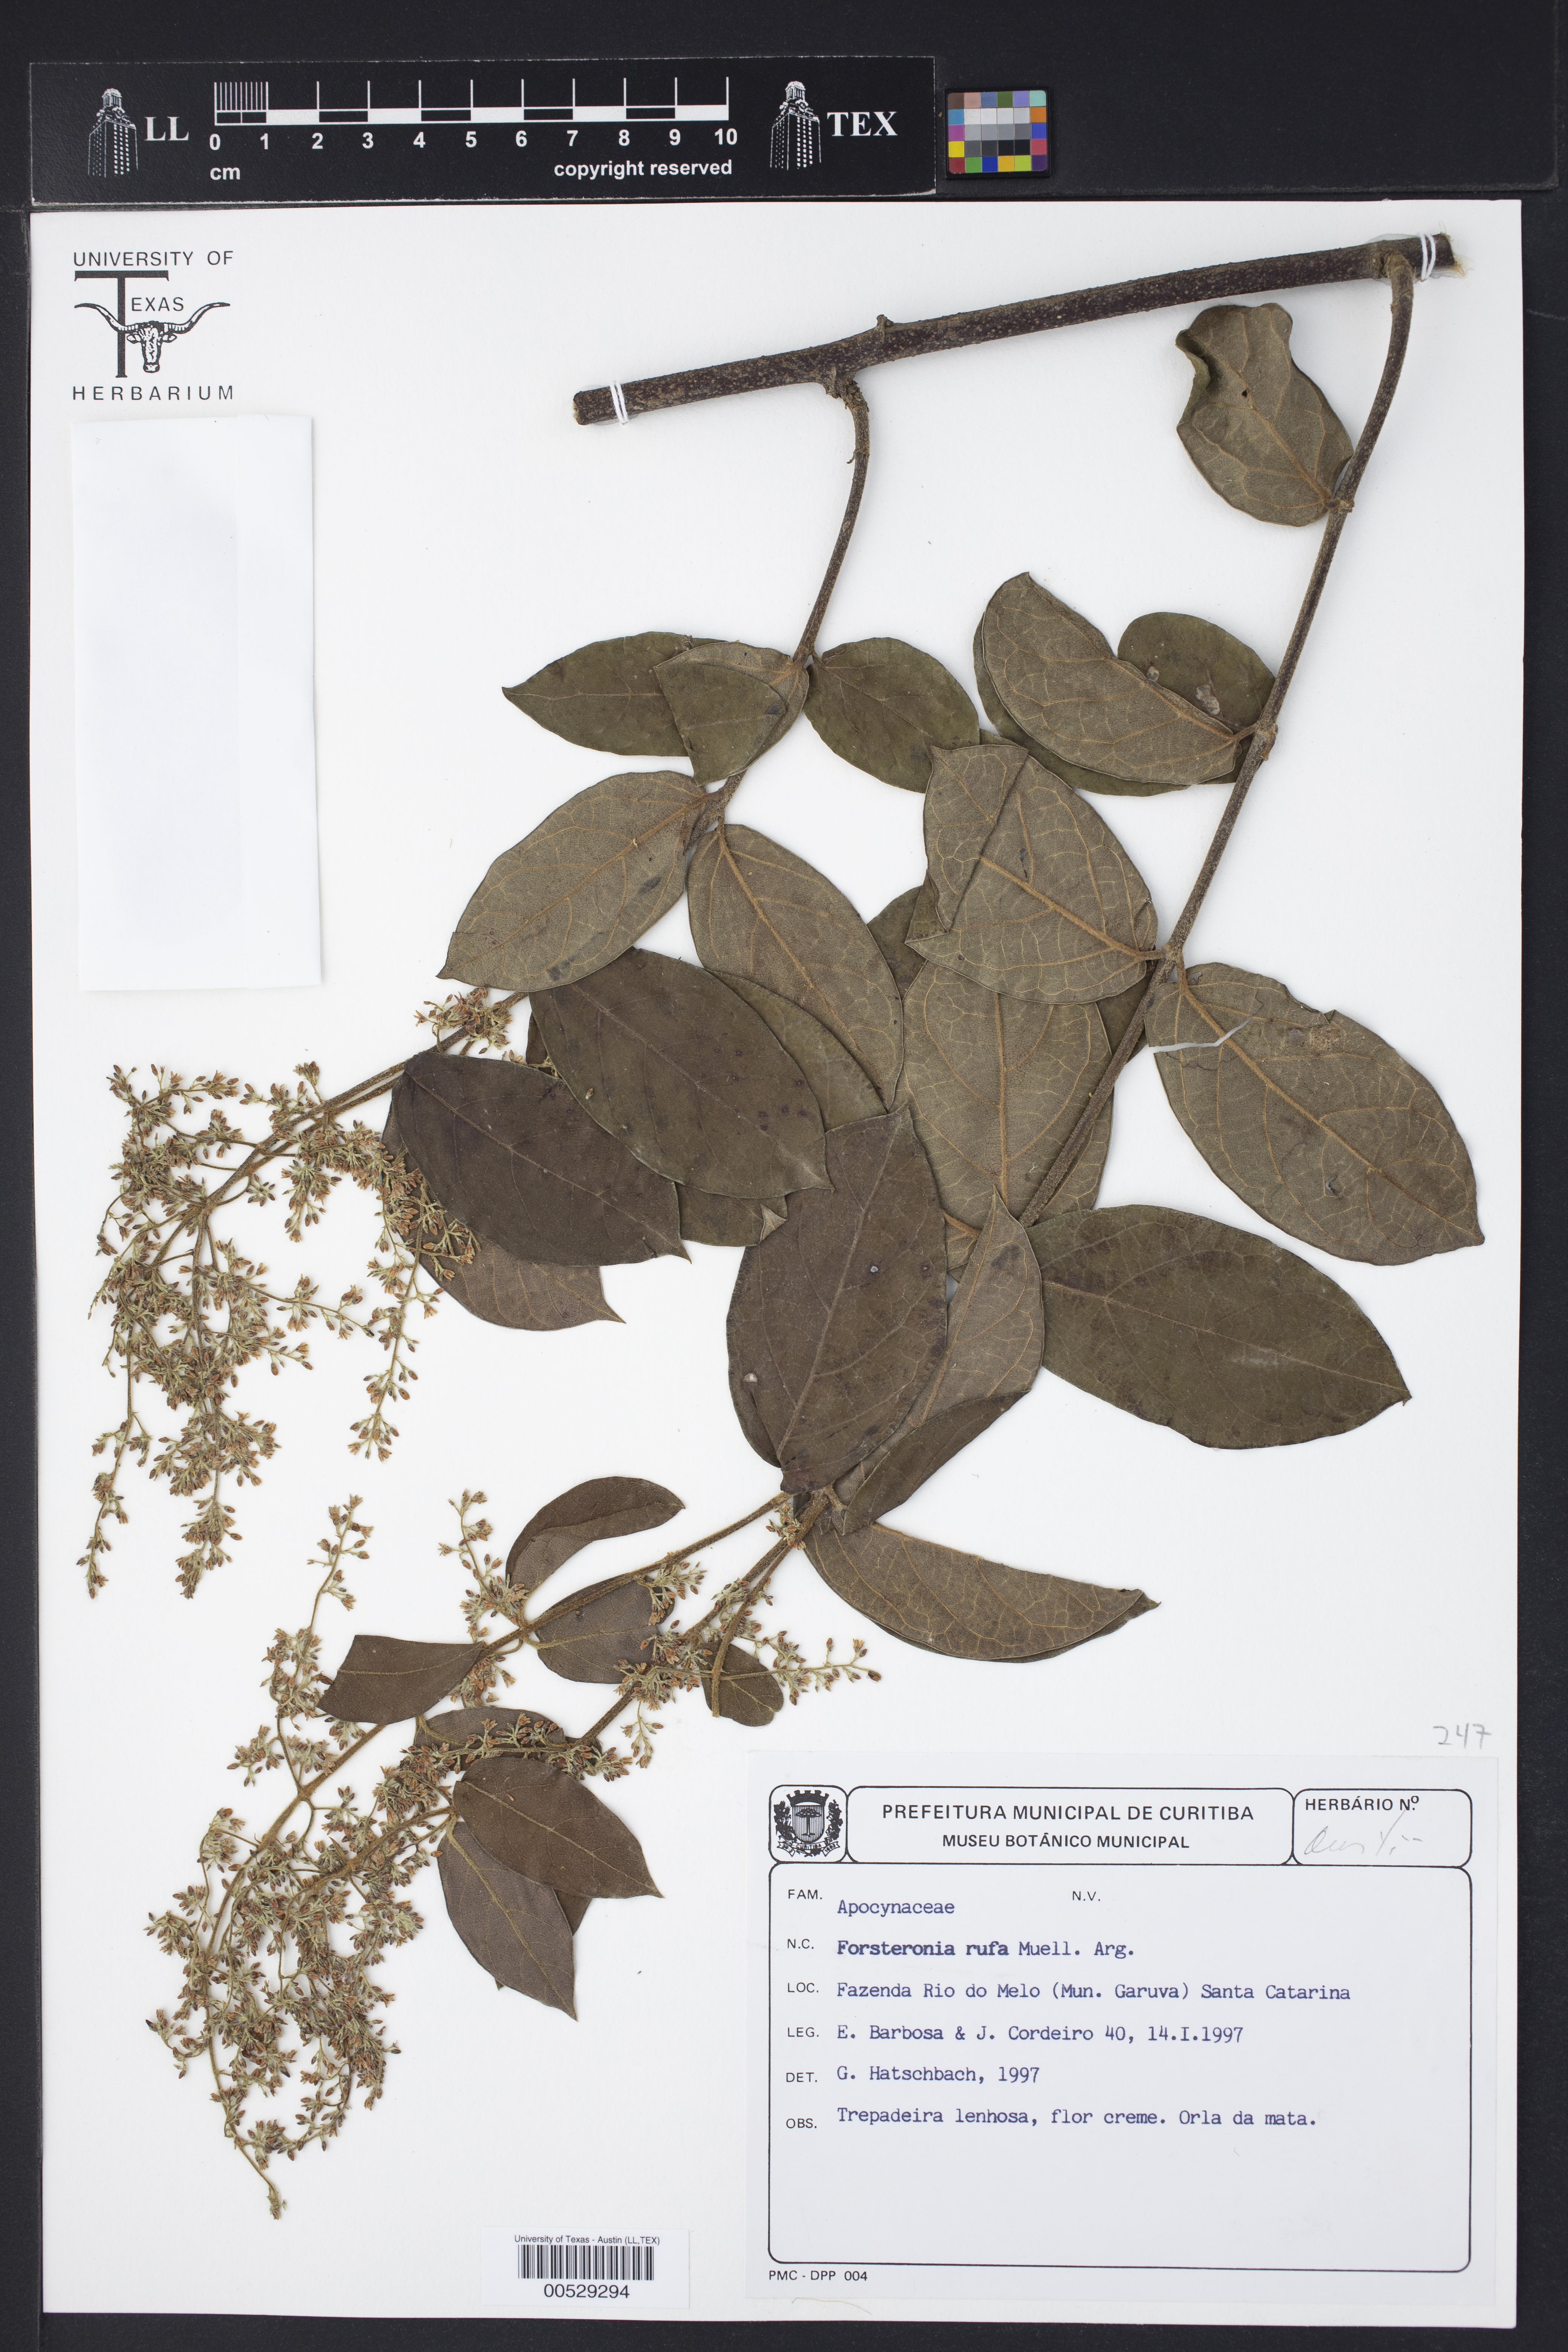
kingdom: Plantae
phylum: Tracheophyta
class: Magnoliopsida
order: Gentianales
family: Apocynaceae
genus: Forsteronia
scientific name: Forsteronia rufa
